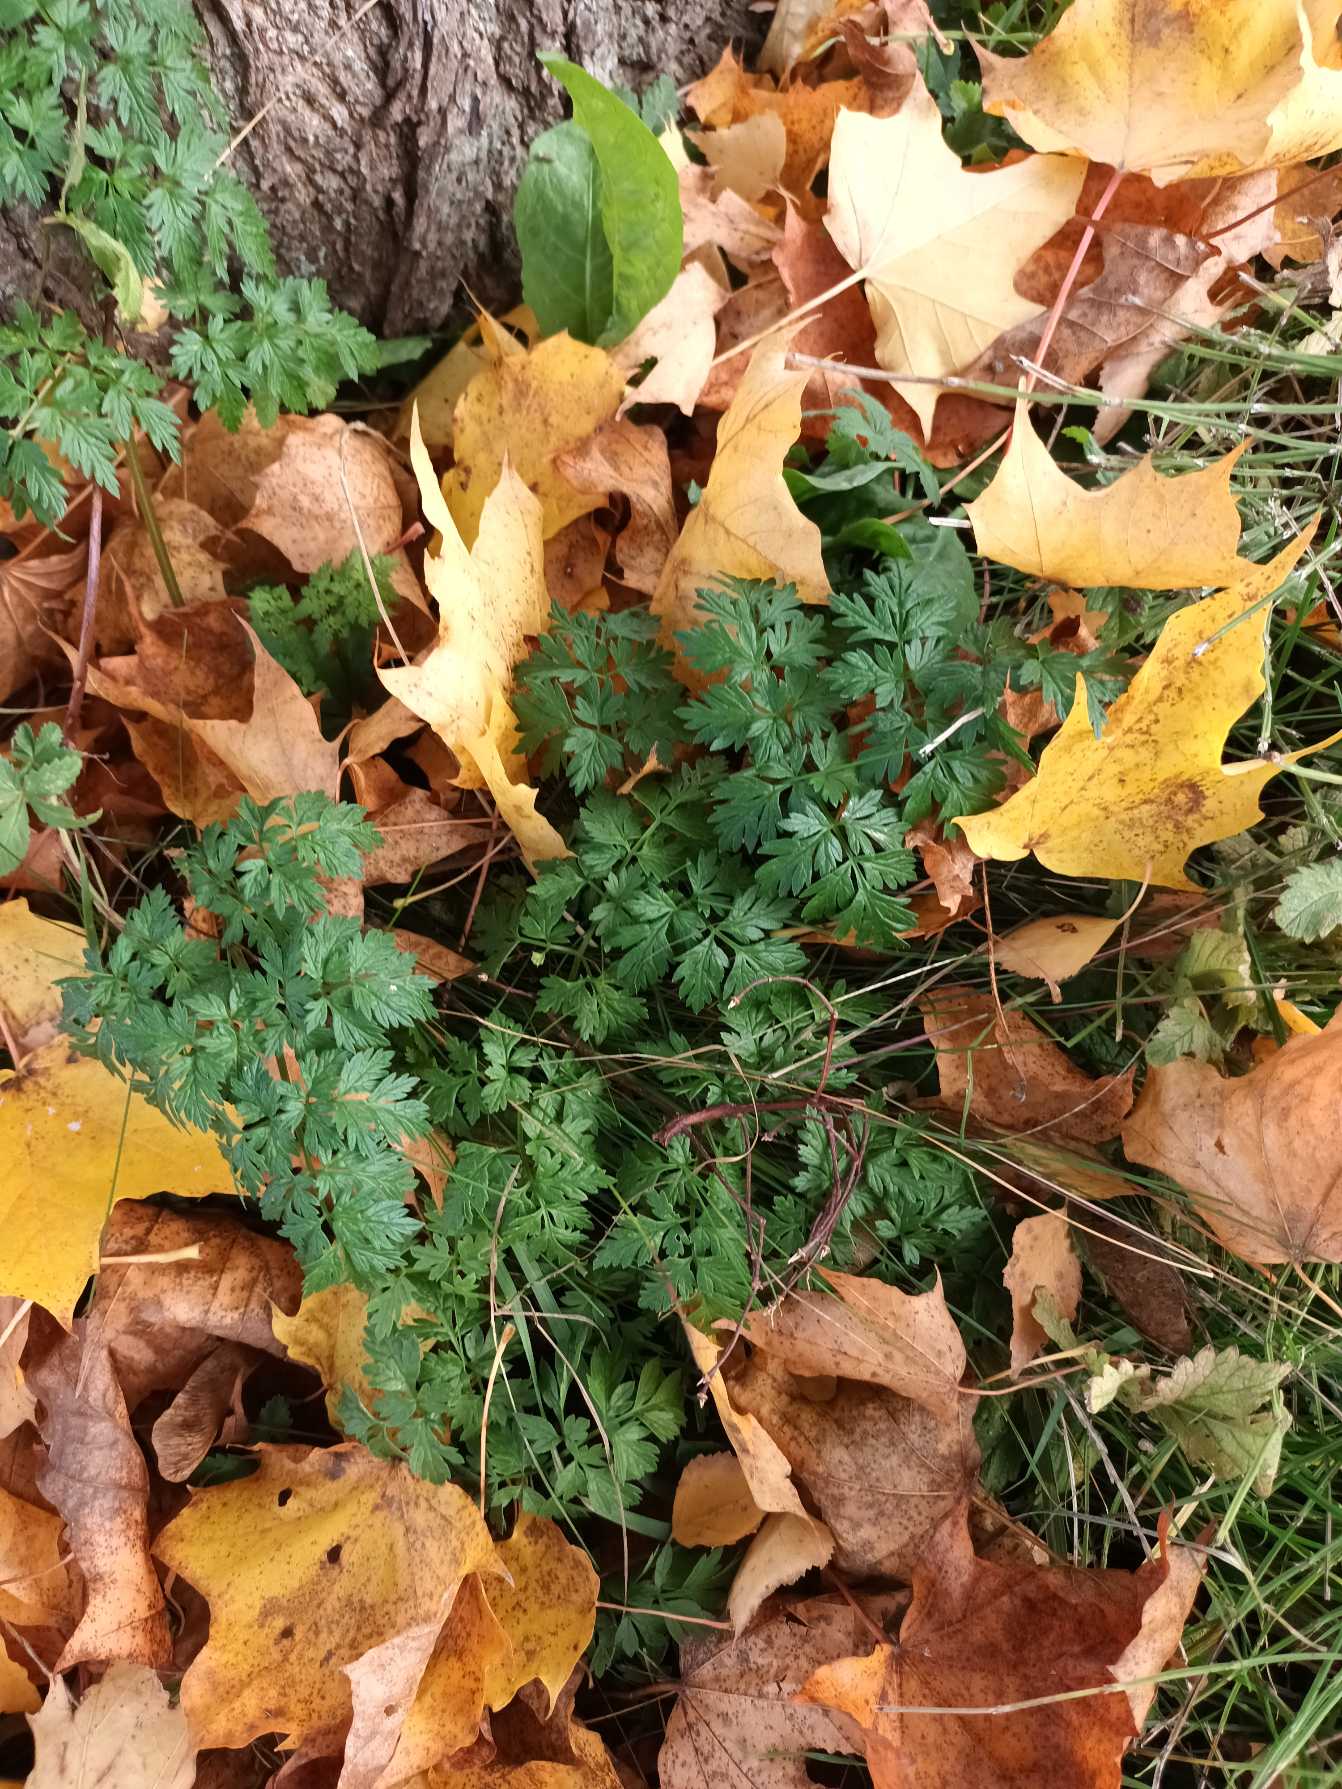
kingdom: Plantae
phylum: Tracheophyta
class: Magnoliopsida
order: Apiales
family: Apiaceae
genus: Anthriscus
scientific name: Anthriscus sylvestris
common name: Vild kørvel
